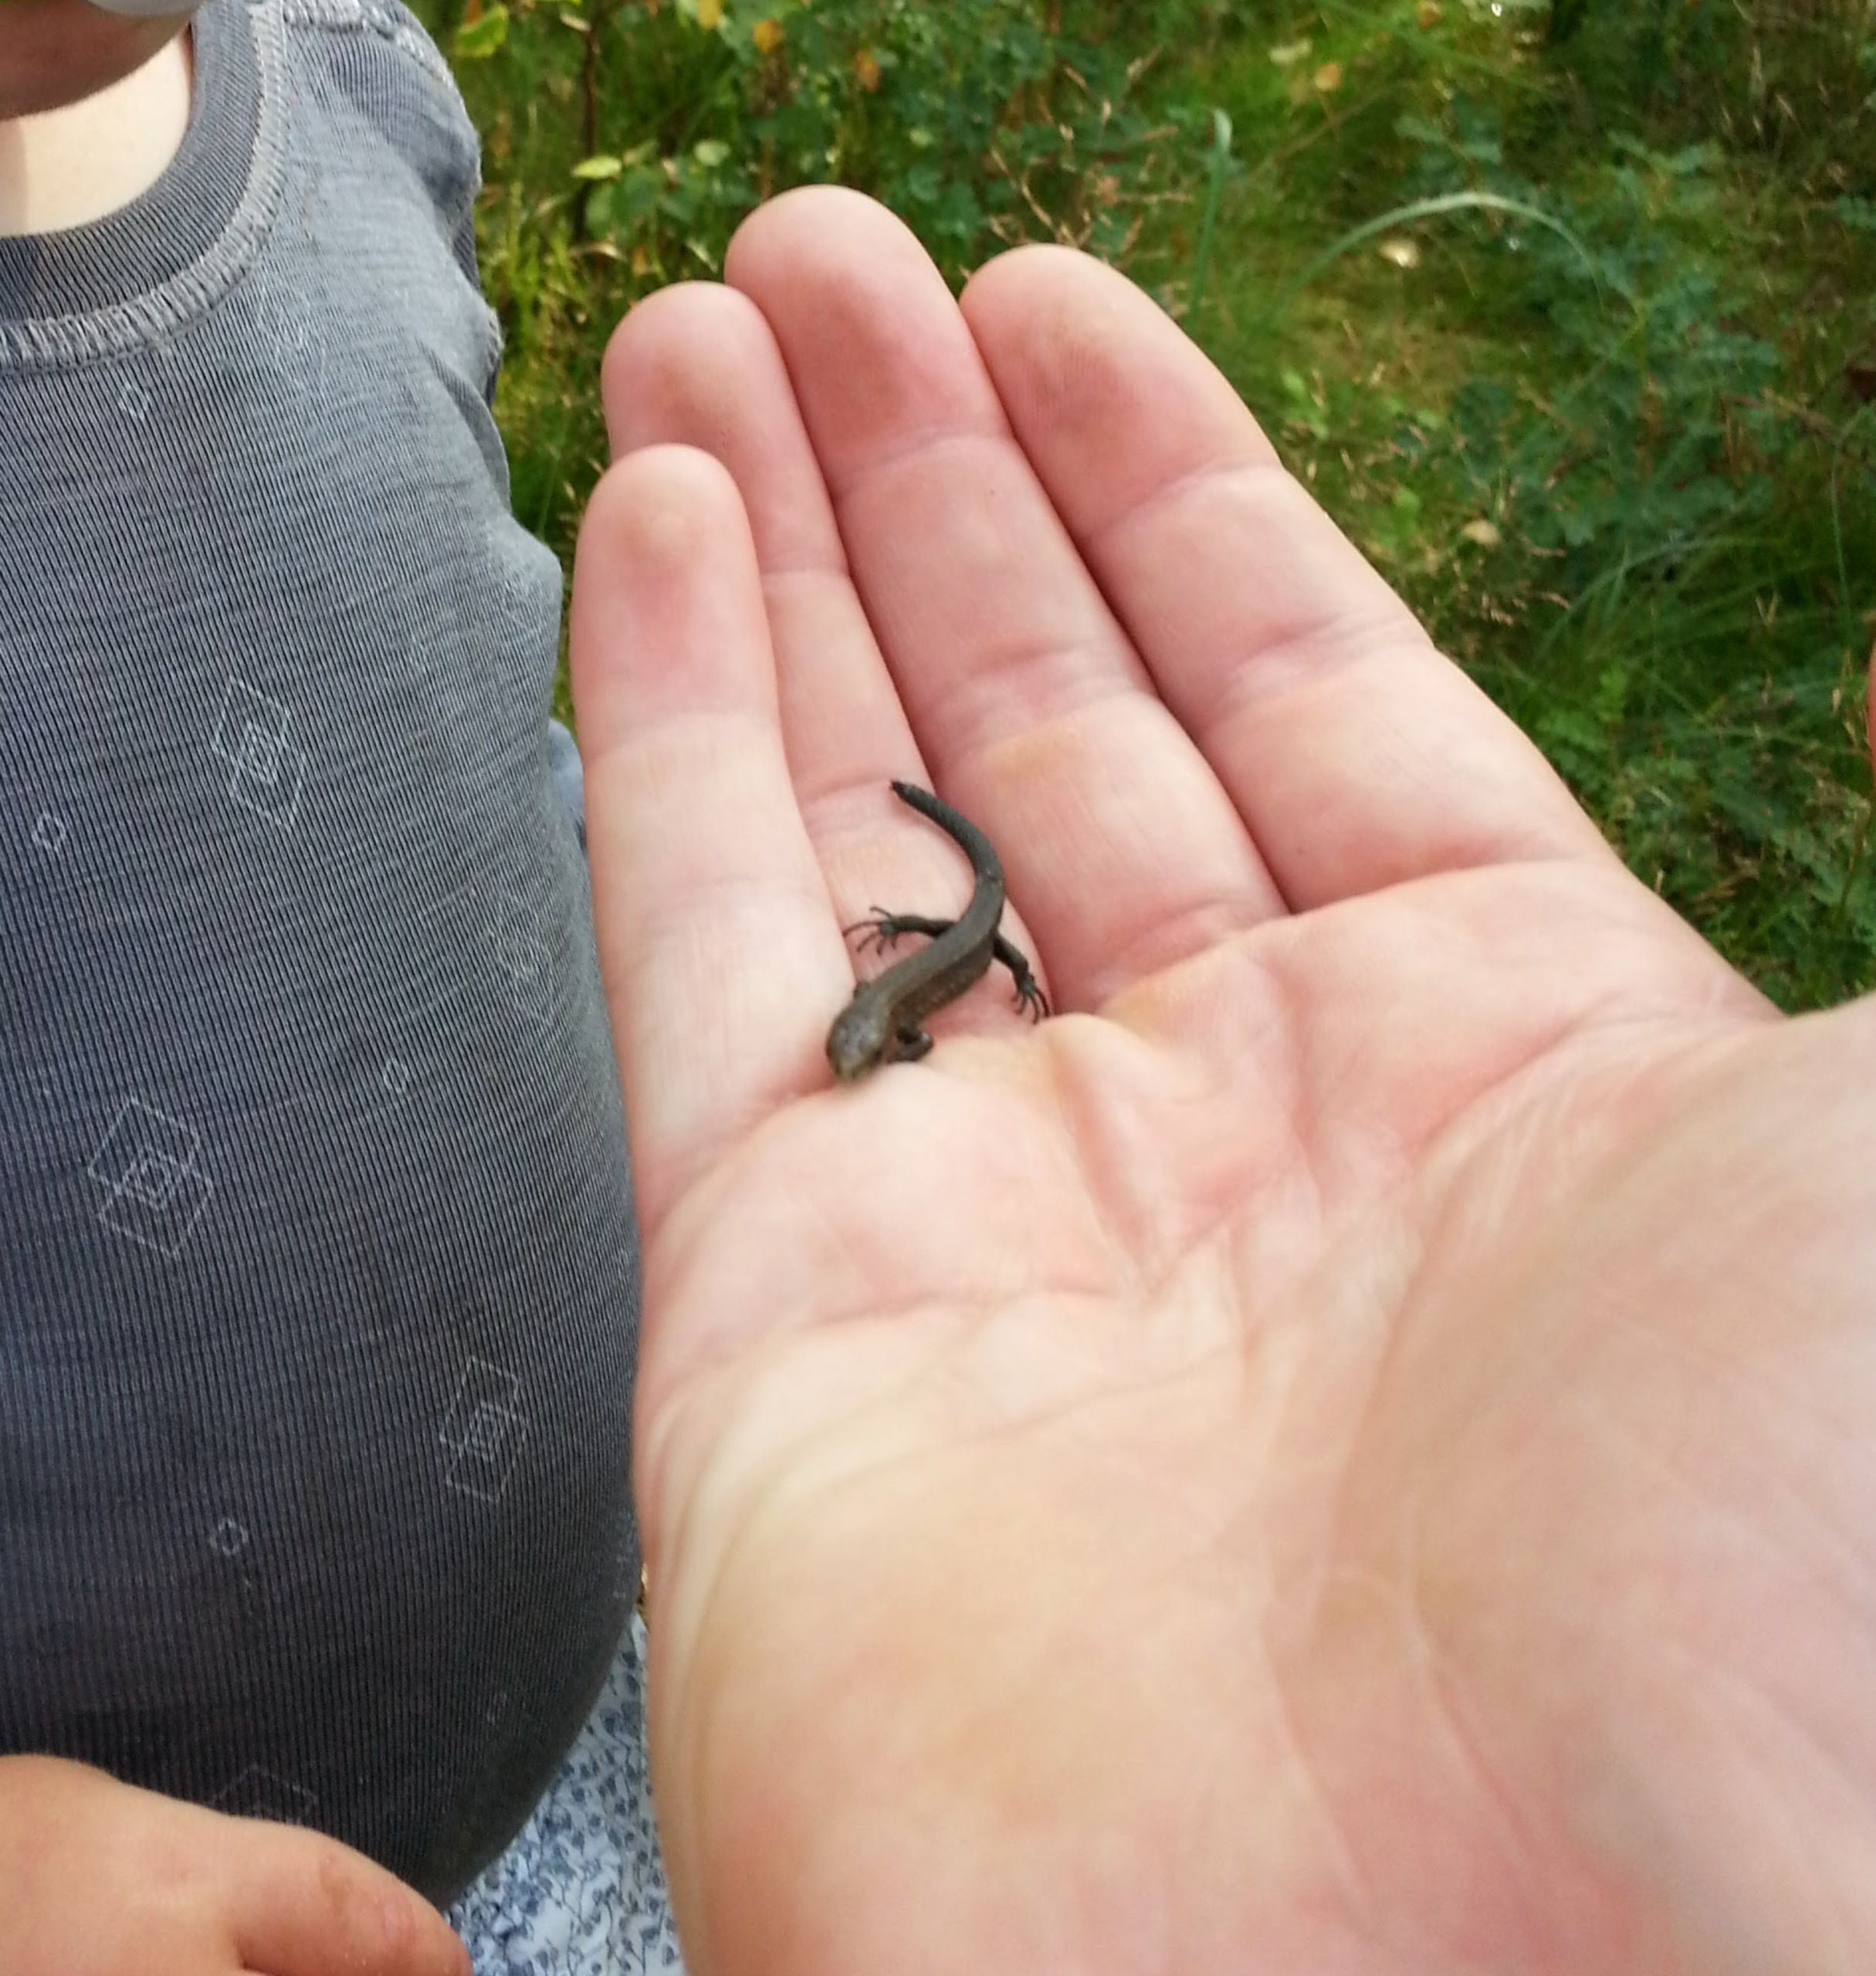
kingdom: Animalia
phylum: Chordata
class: Squamata
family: Lacertidae
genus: Zootoca
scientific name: Zootoca vivipara
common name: Skovfirben
